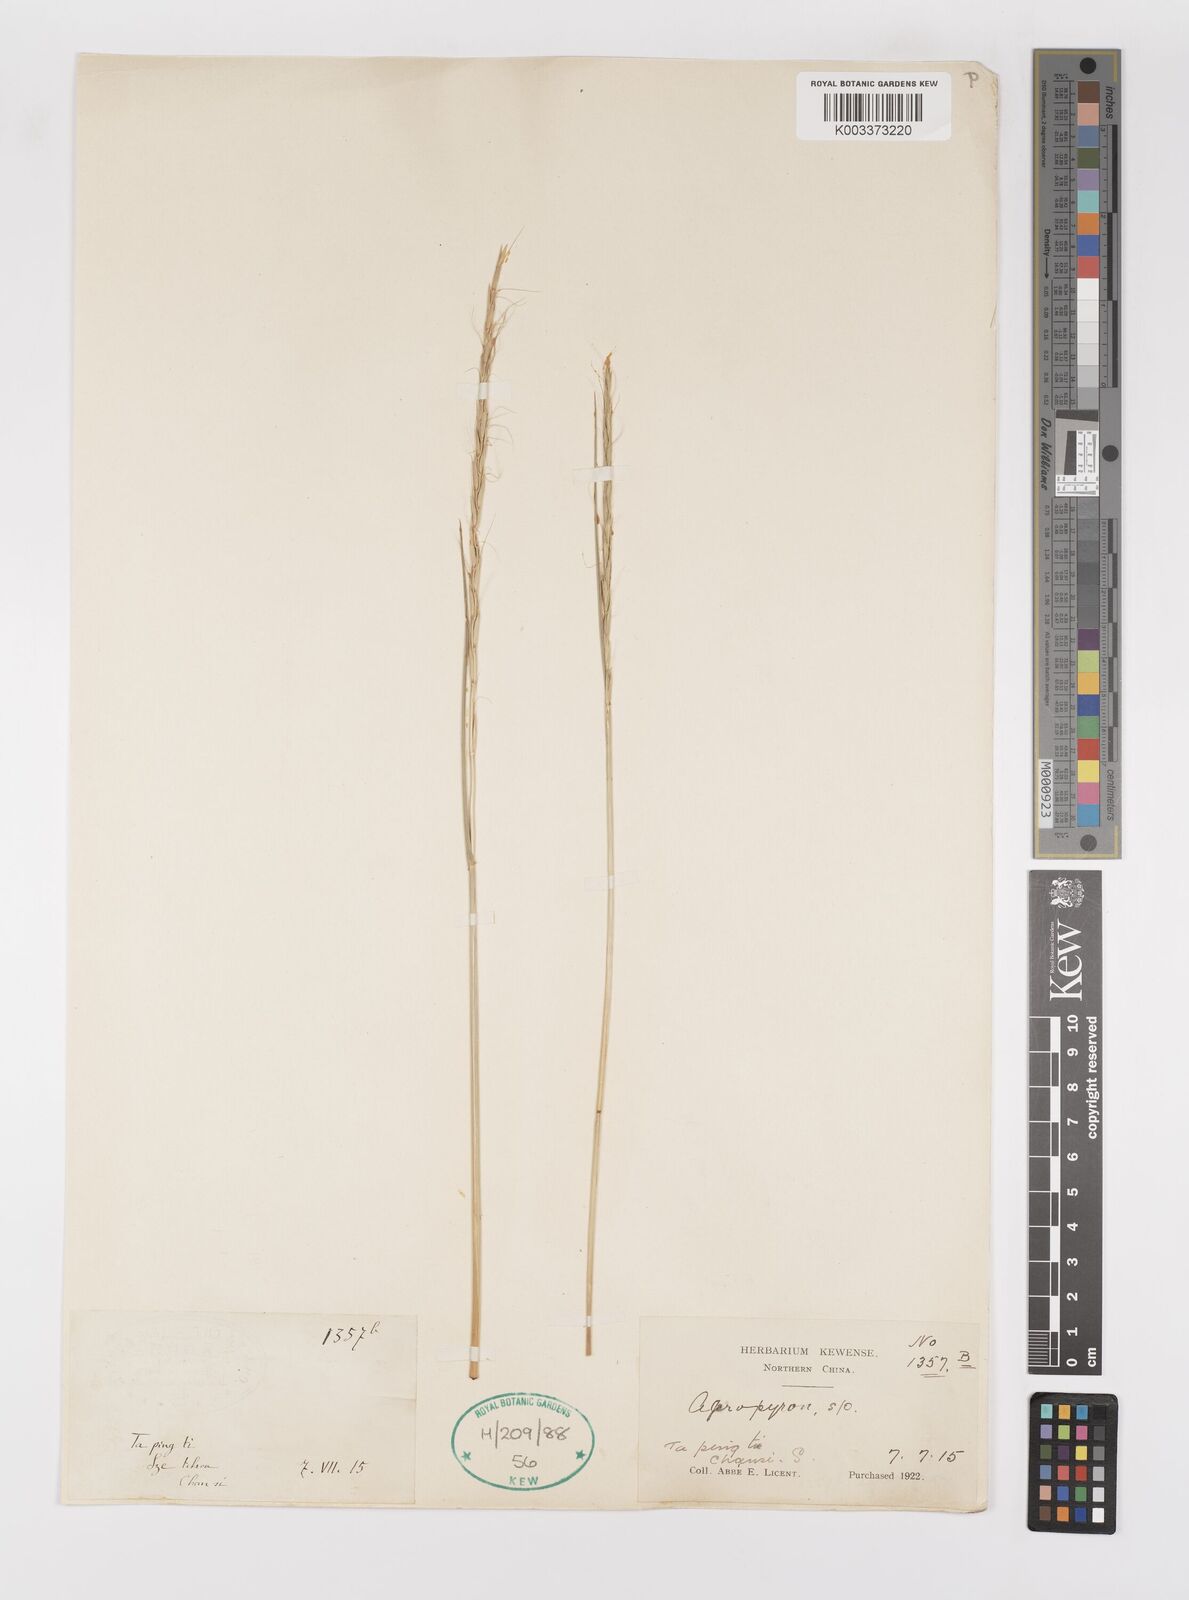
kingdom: Plantae
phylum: Tracheophyta
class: Liliopsida
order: Poales
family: Poaceae
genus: Elymus
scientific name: Elymus
